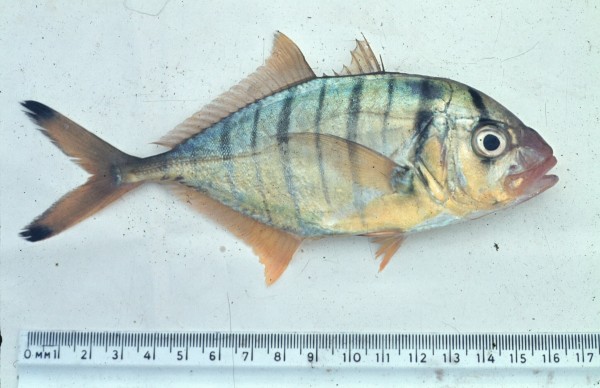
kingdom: Animalia
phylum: Chordata
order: Perciformes
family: Carangidae
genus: Gnathanodon
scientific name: Gnathanodon speciosus
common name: Golden toothless trevally
